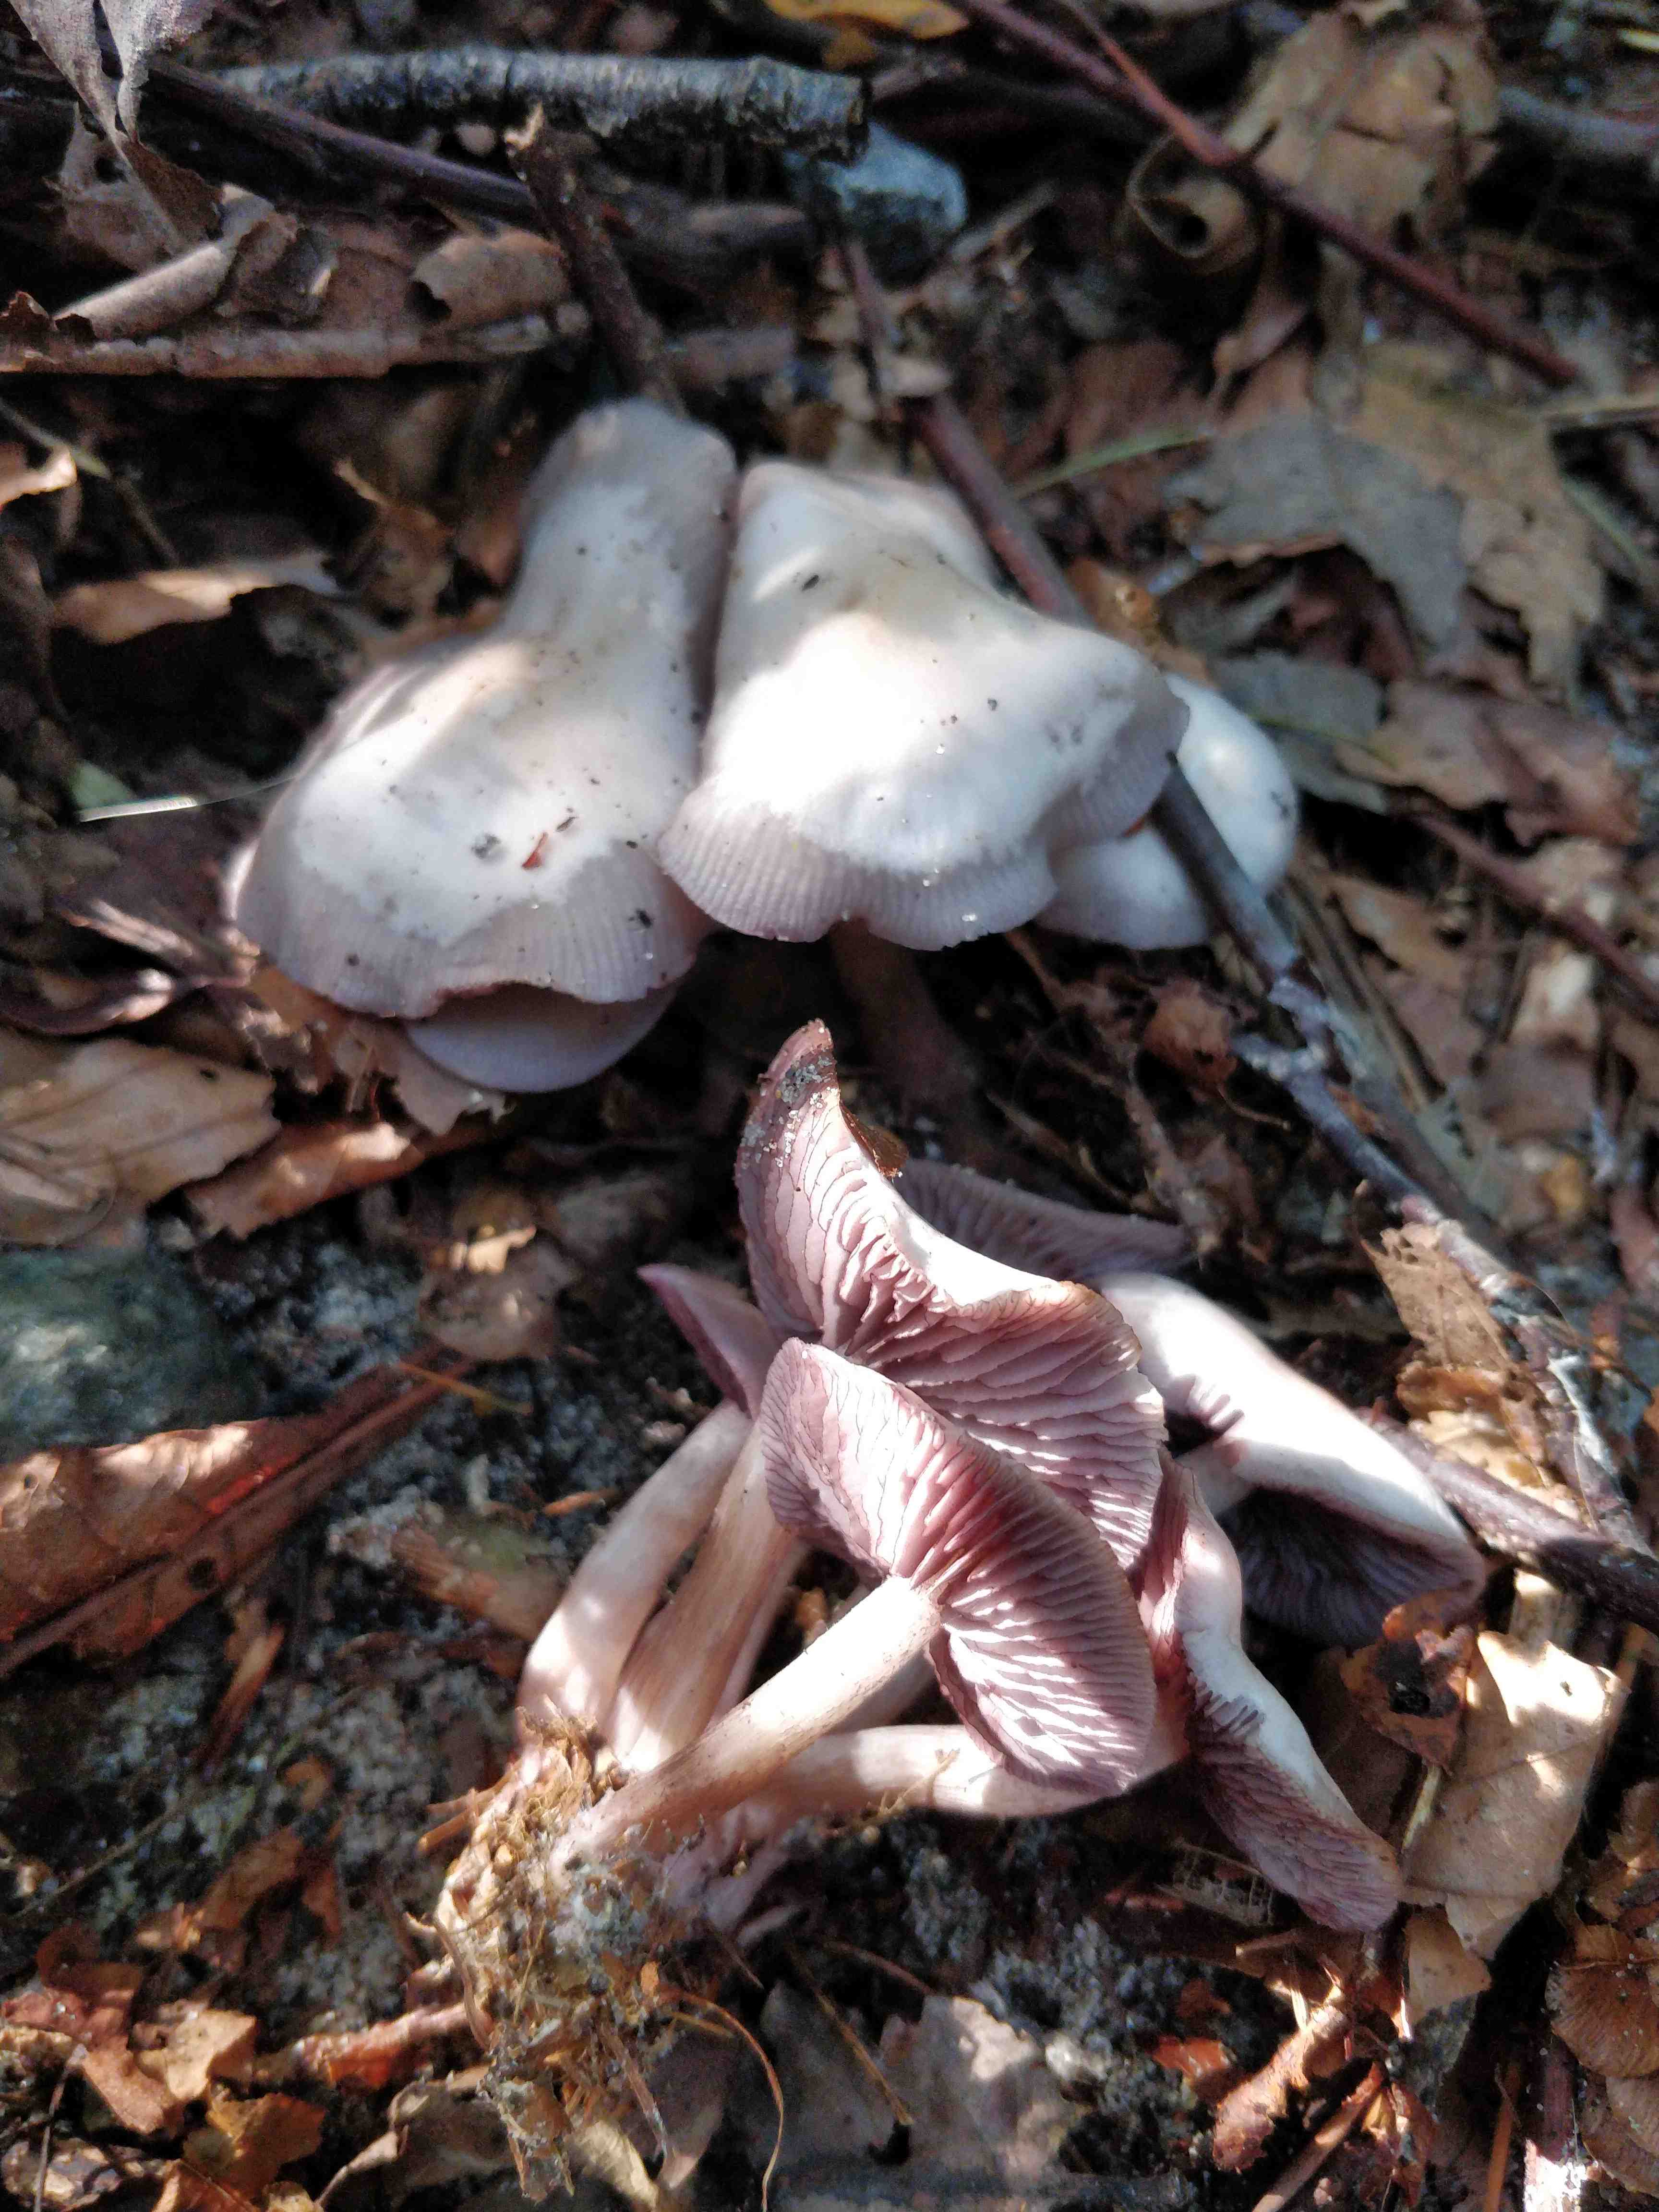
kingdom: Fungi
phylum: Basidiomycota
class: Agaricomycetes
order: Agaricales
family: Mycenaceae
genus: Mycena
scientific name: Mycena pelianthina
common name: mørkbladet huesvamp
